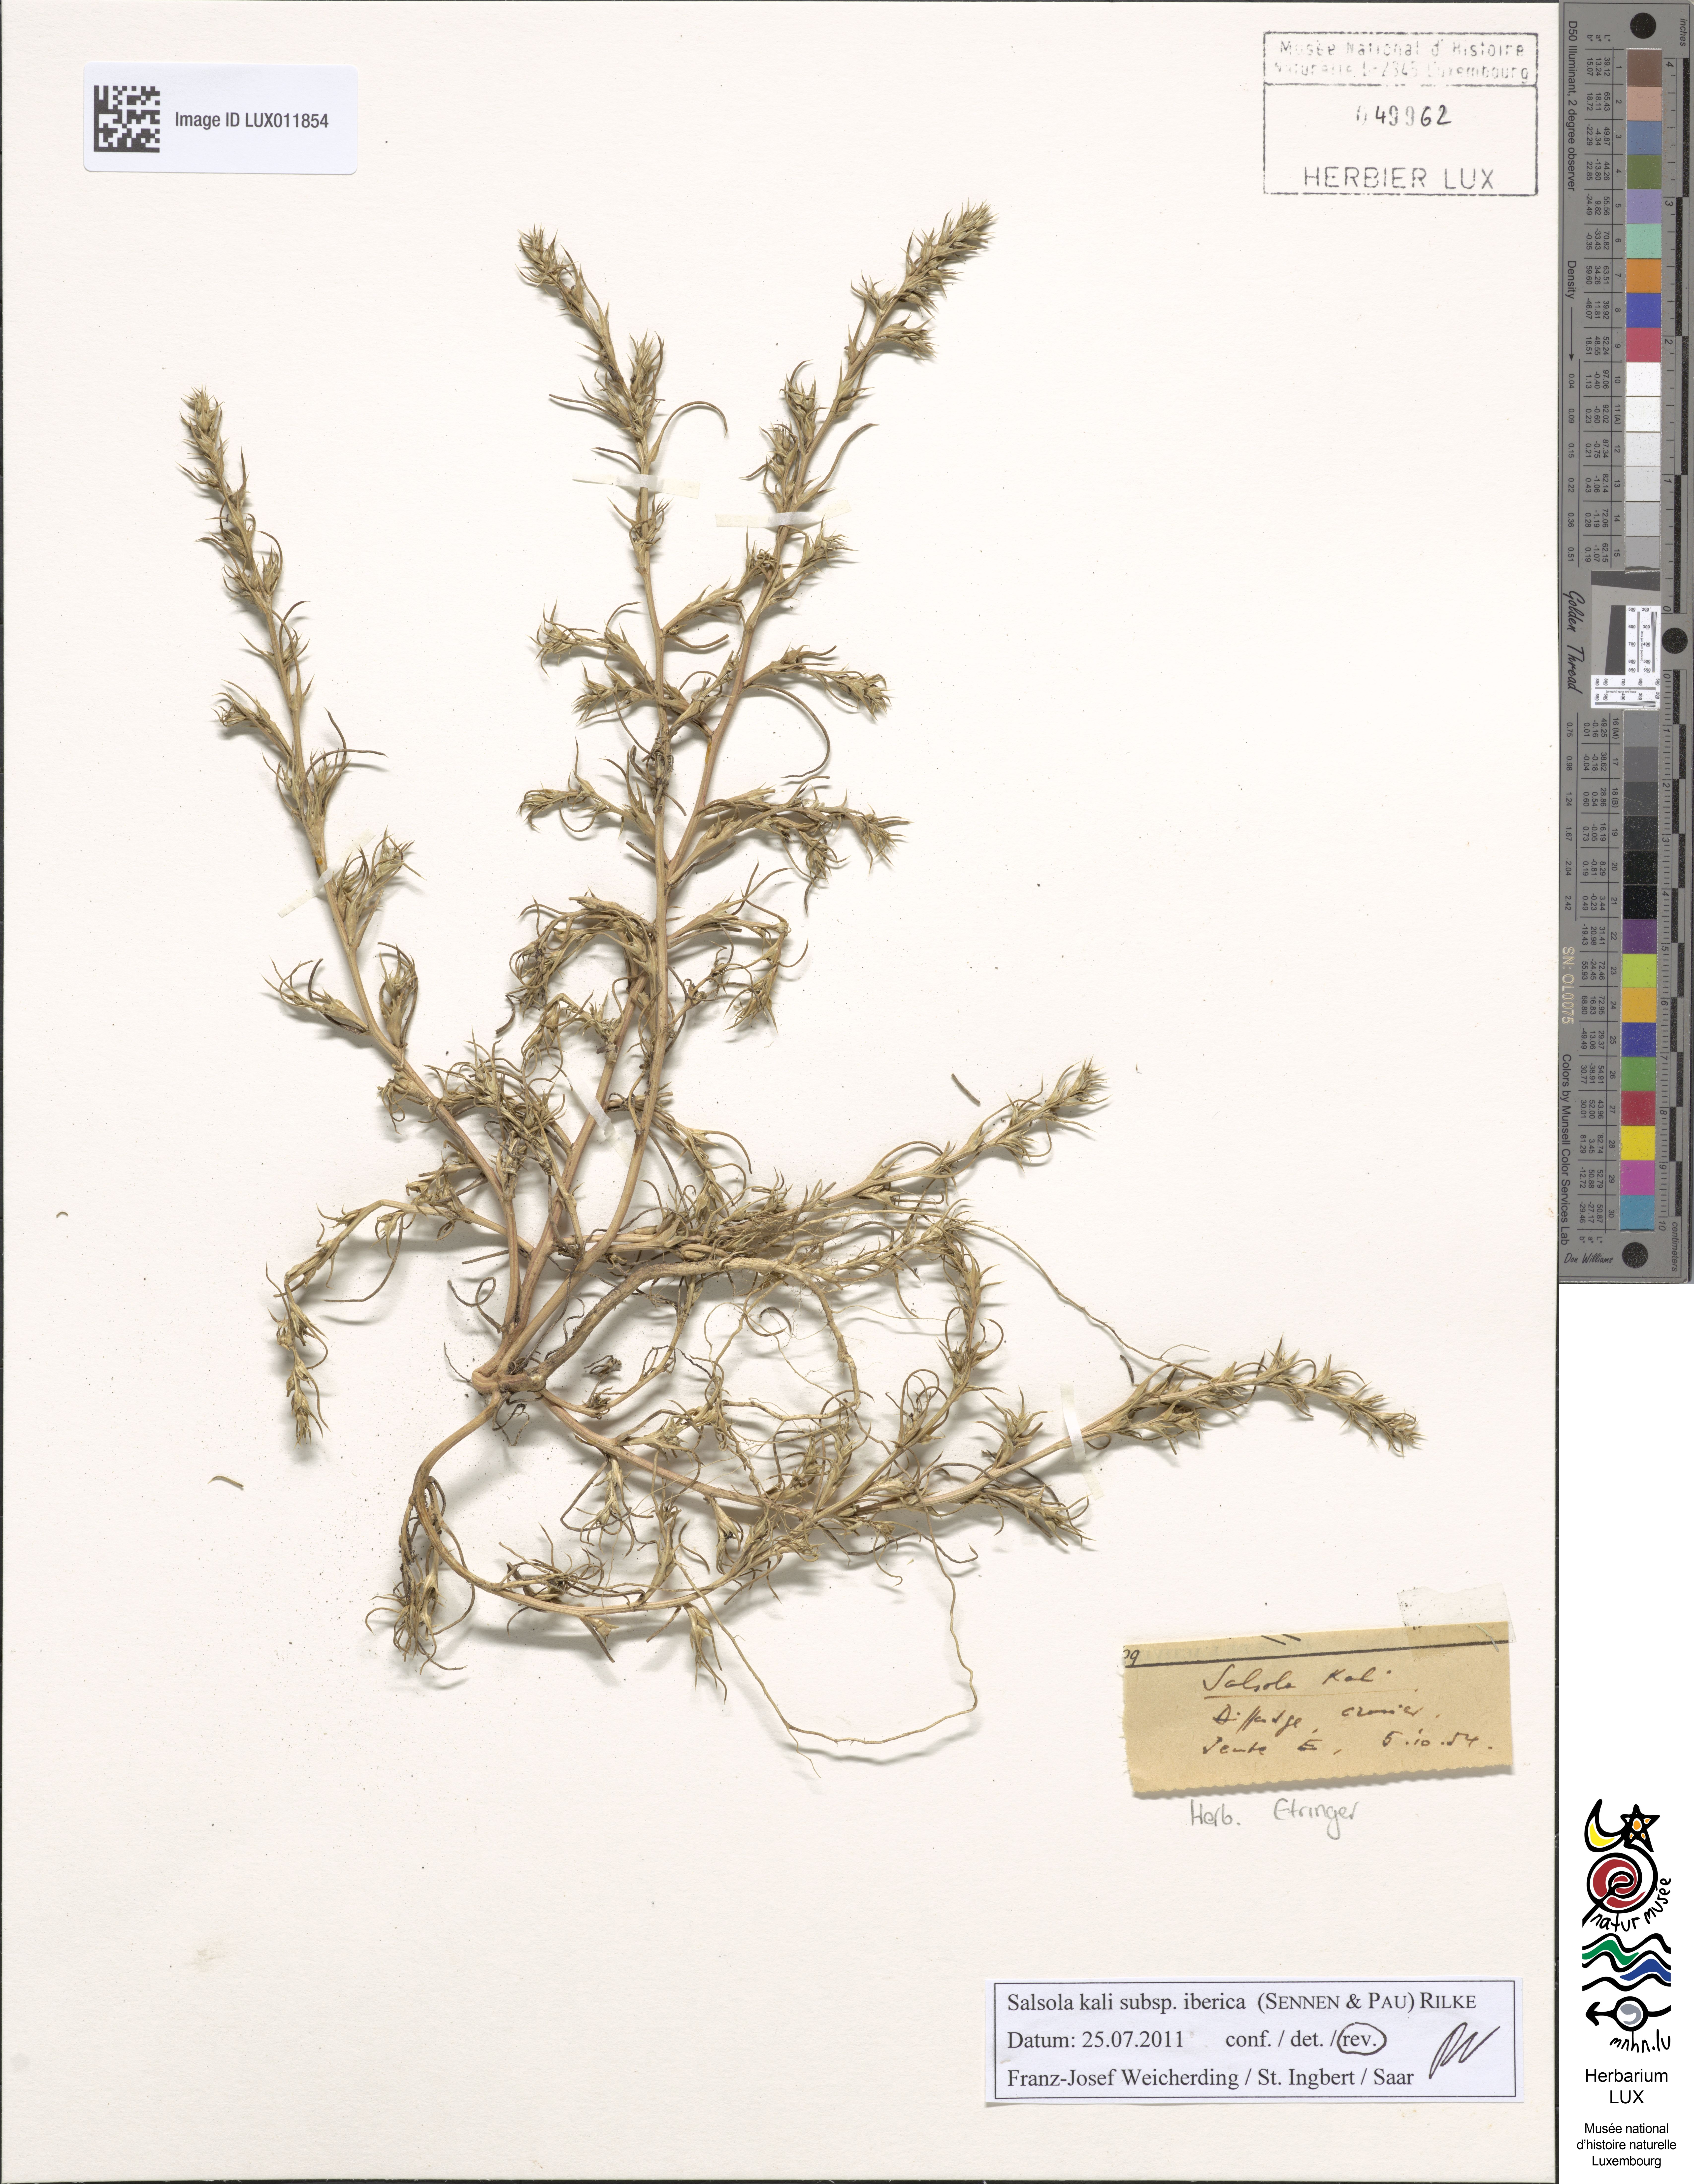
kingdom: Plantae
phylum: Tracheophyta
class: Magnoliopsida
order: Caryophyllales
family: Amaranthaceae
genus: Salsola
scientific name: Salsola kali
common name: Saltwort
